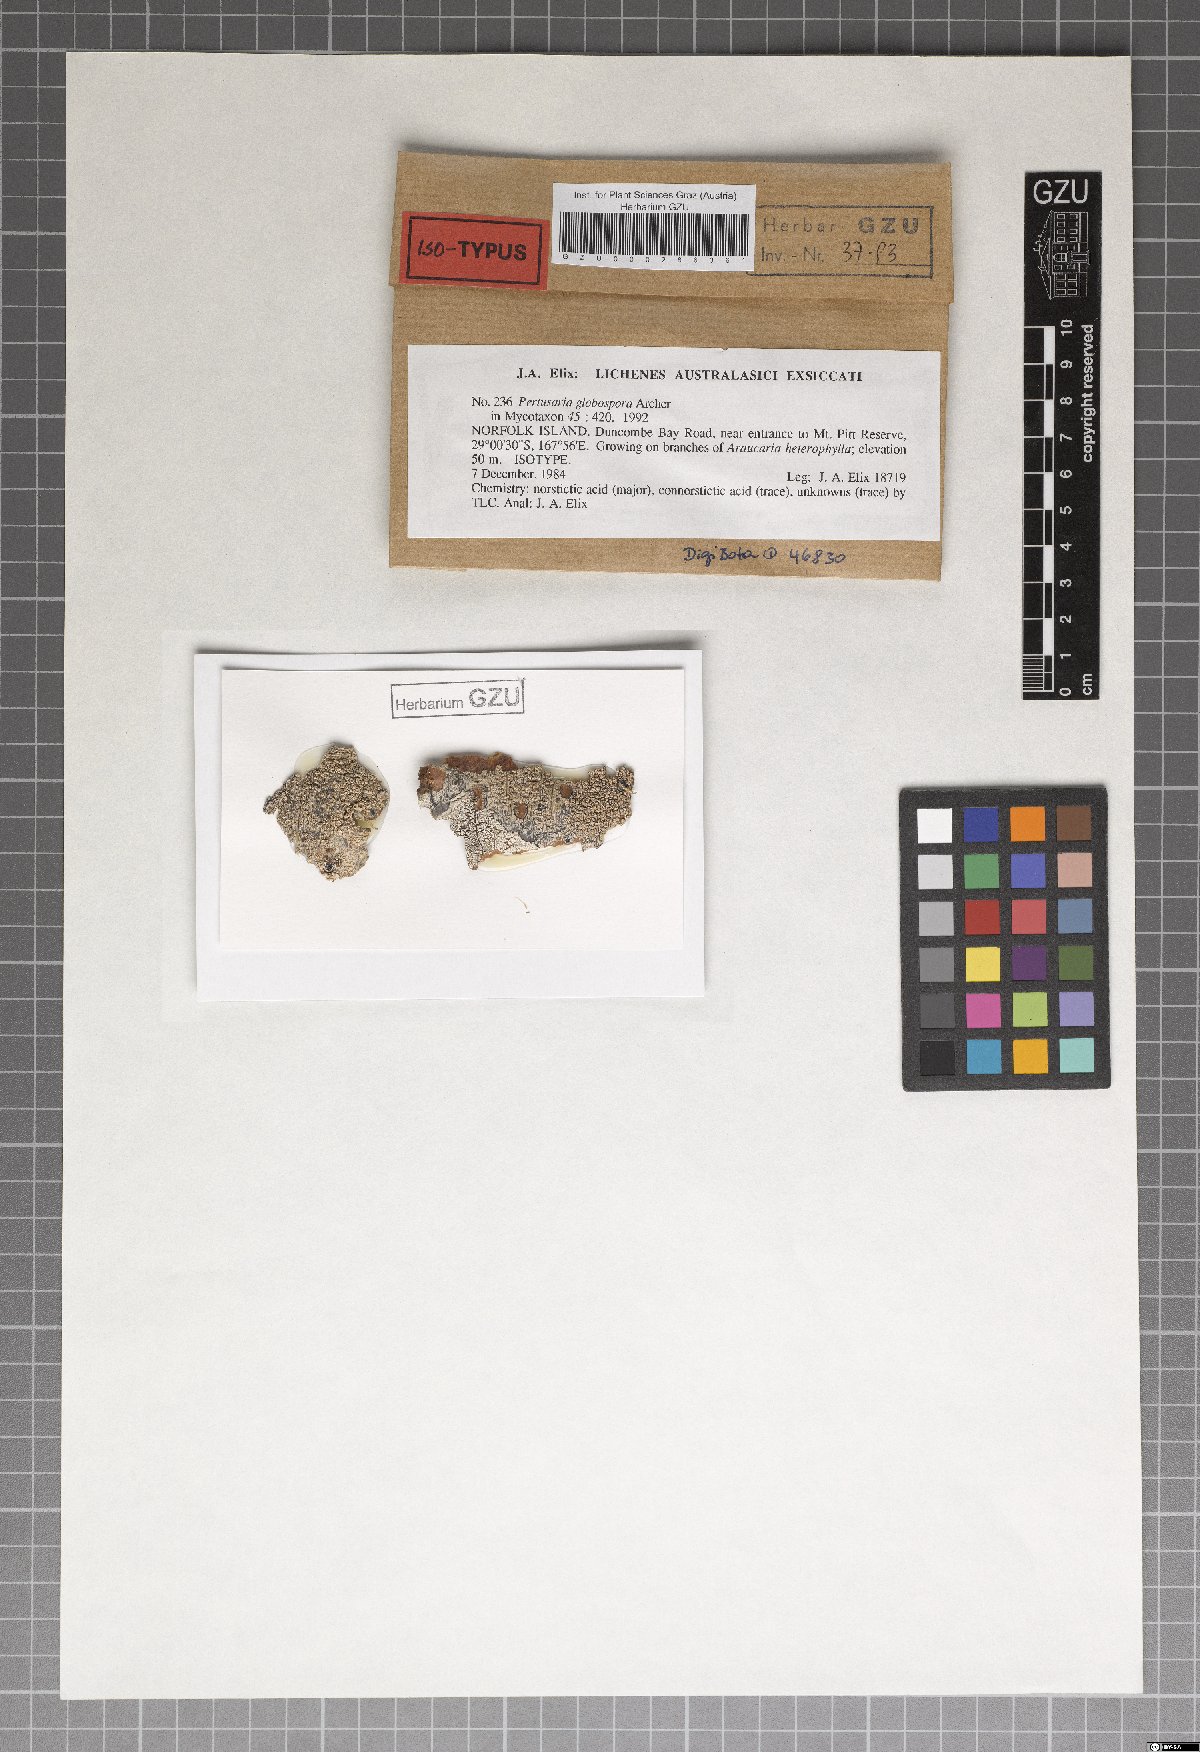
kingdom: Fungi
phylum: Ascomycota
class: Lecanoromycetes
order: Pertusariales
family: Pertusariaceae
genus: Pertusaria
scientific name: Pertusaria globospora
